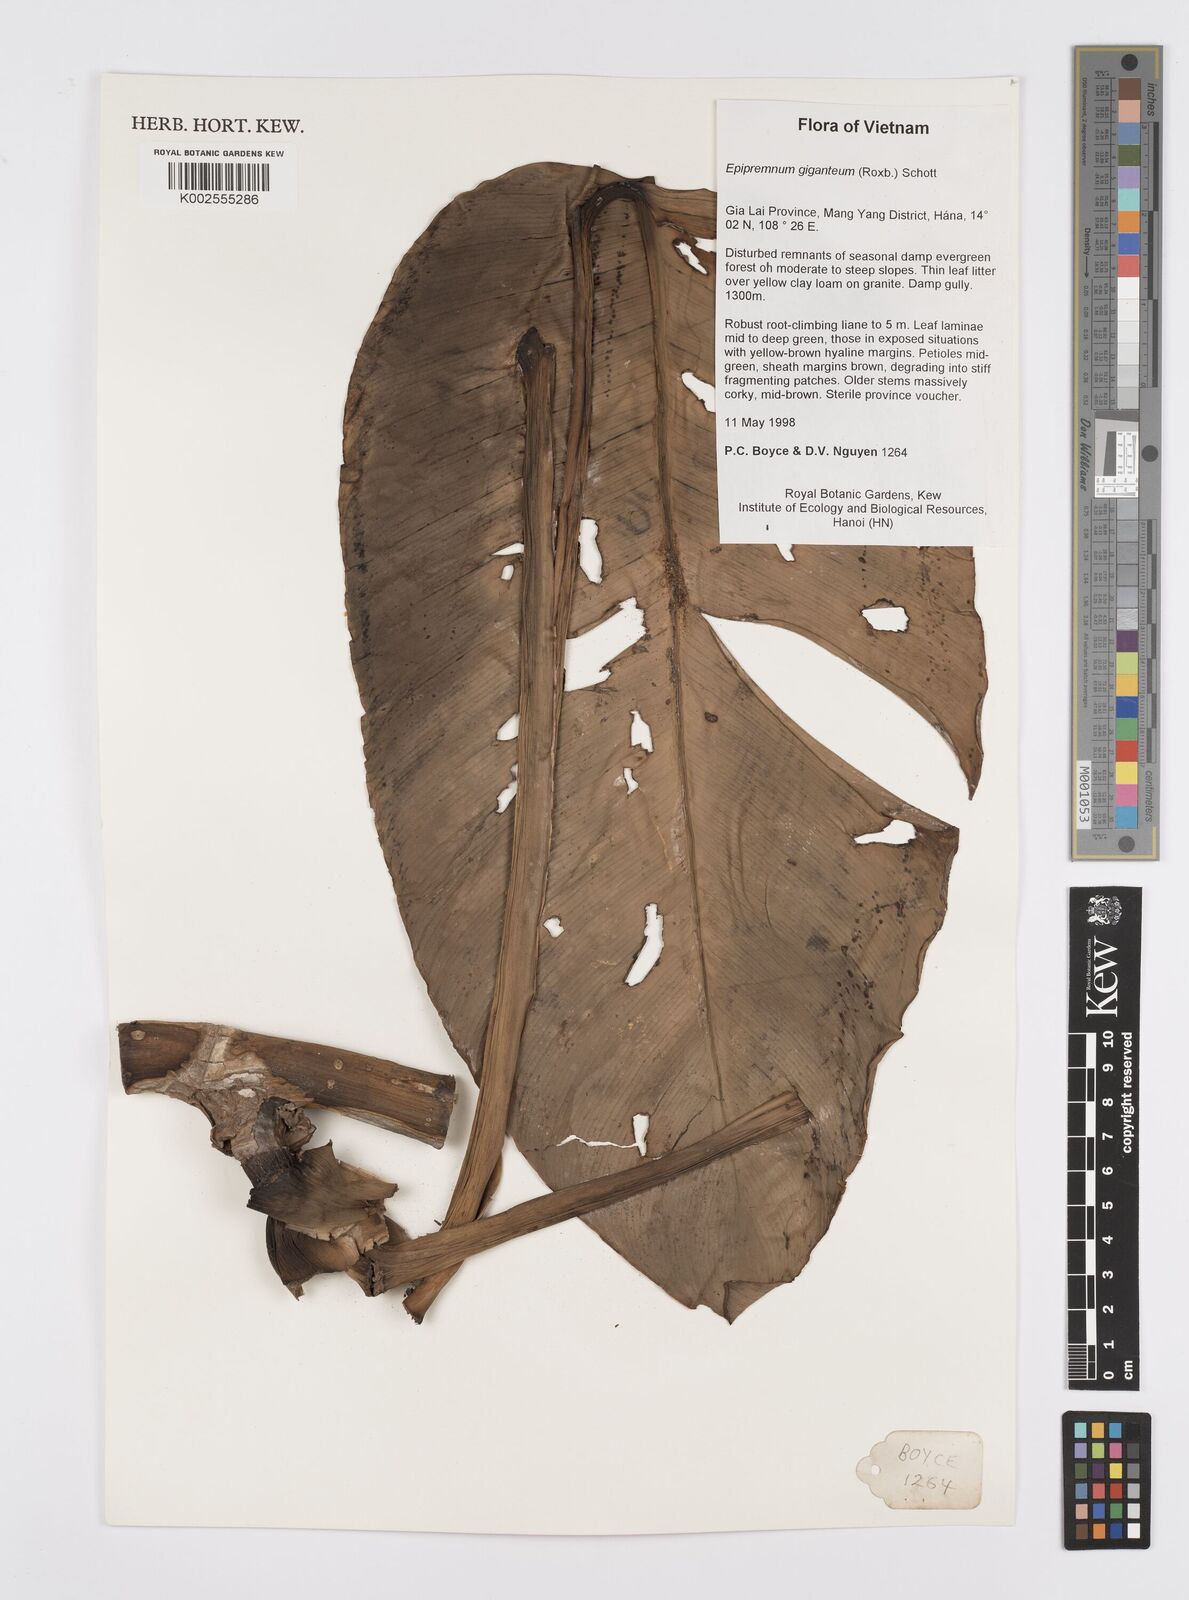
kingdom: Plantae
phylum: Tracheophyta
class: Liliopsida
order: Alismatales
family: Araceae
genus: Epipremnum
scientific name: Epipremnum giganteum
